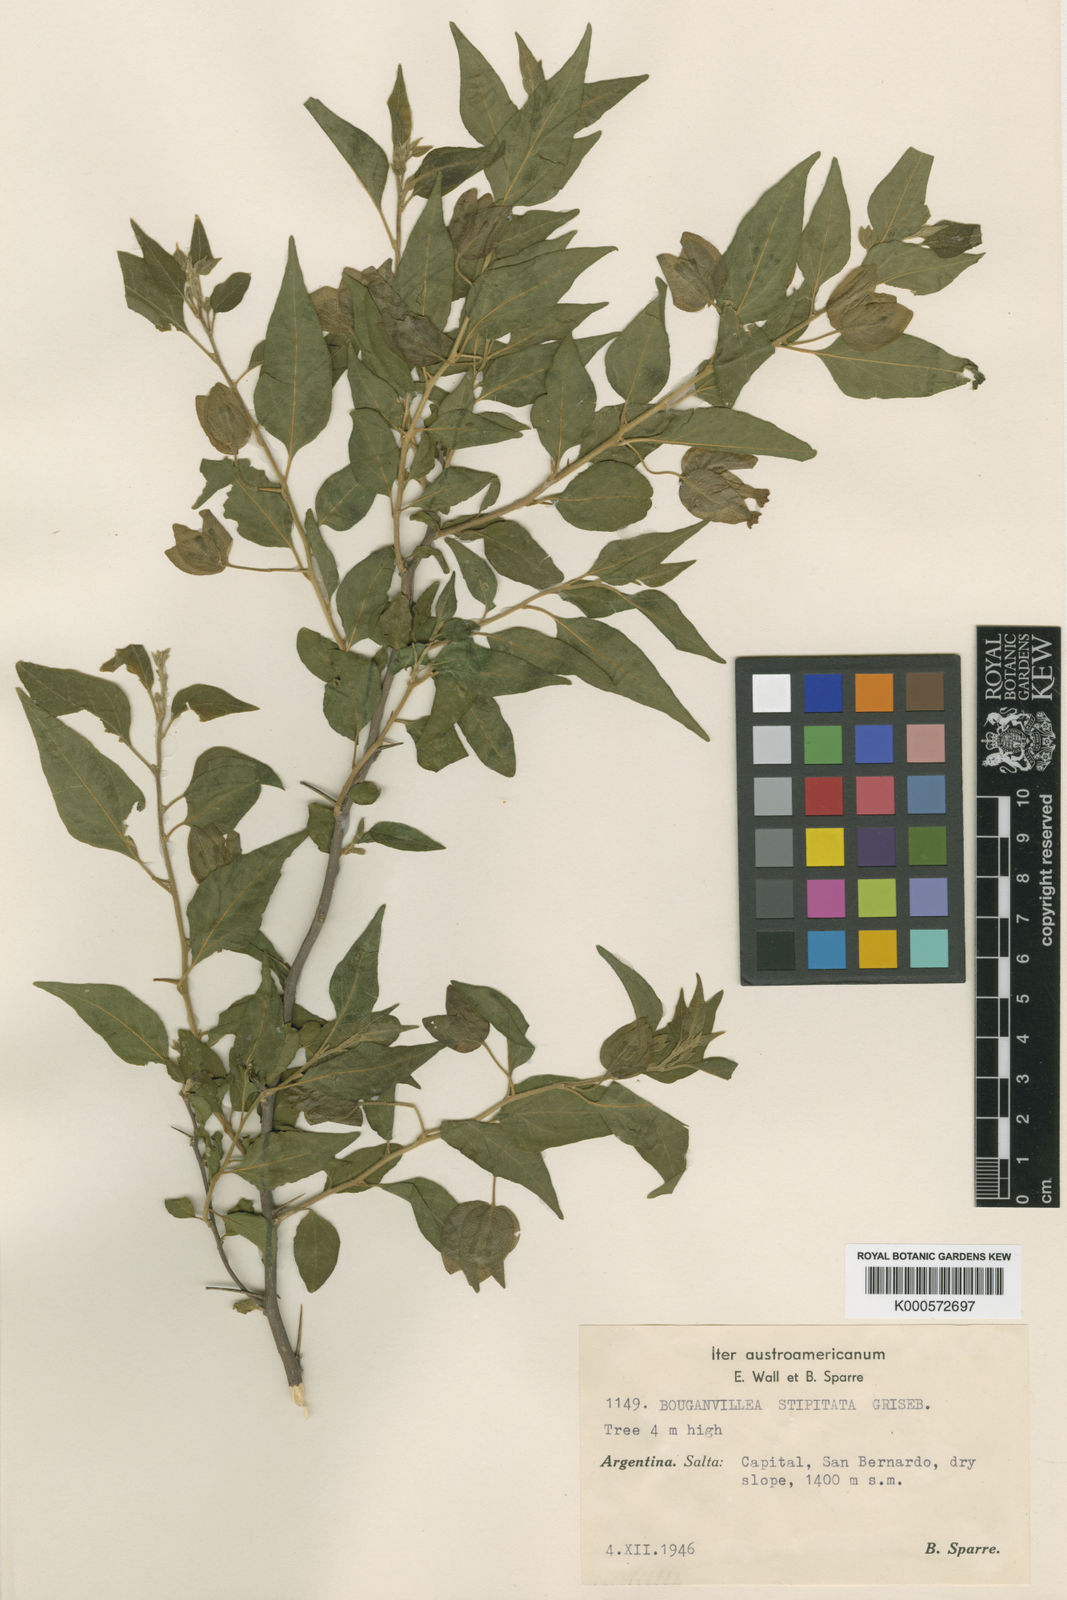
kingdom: Plantae
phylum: Tracheophyta
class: Magnoliopsida
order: Caryophyllales
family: Nyctaginaceae
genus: Bougainvillea
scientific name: Bougainvillea stipitata
